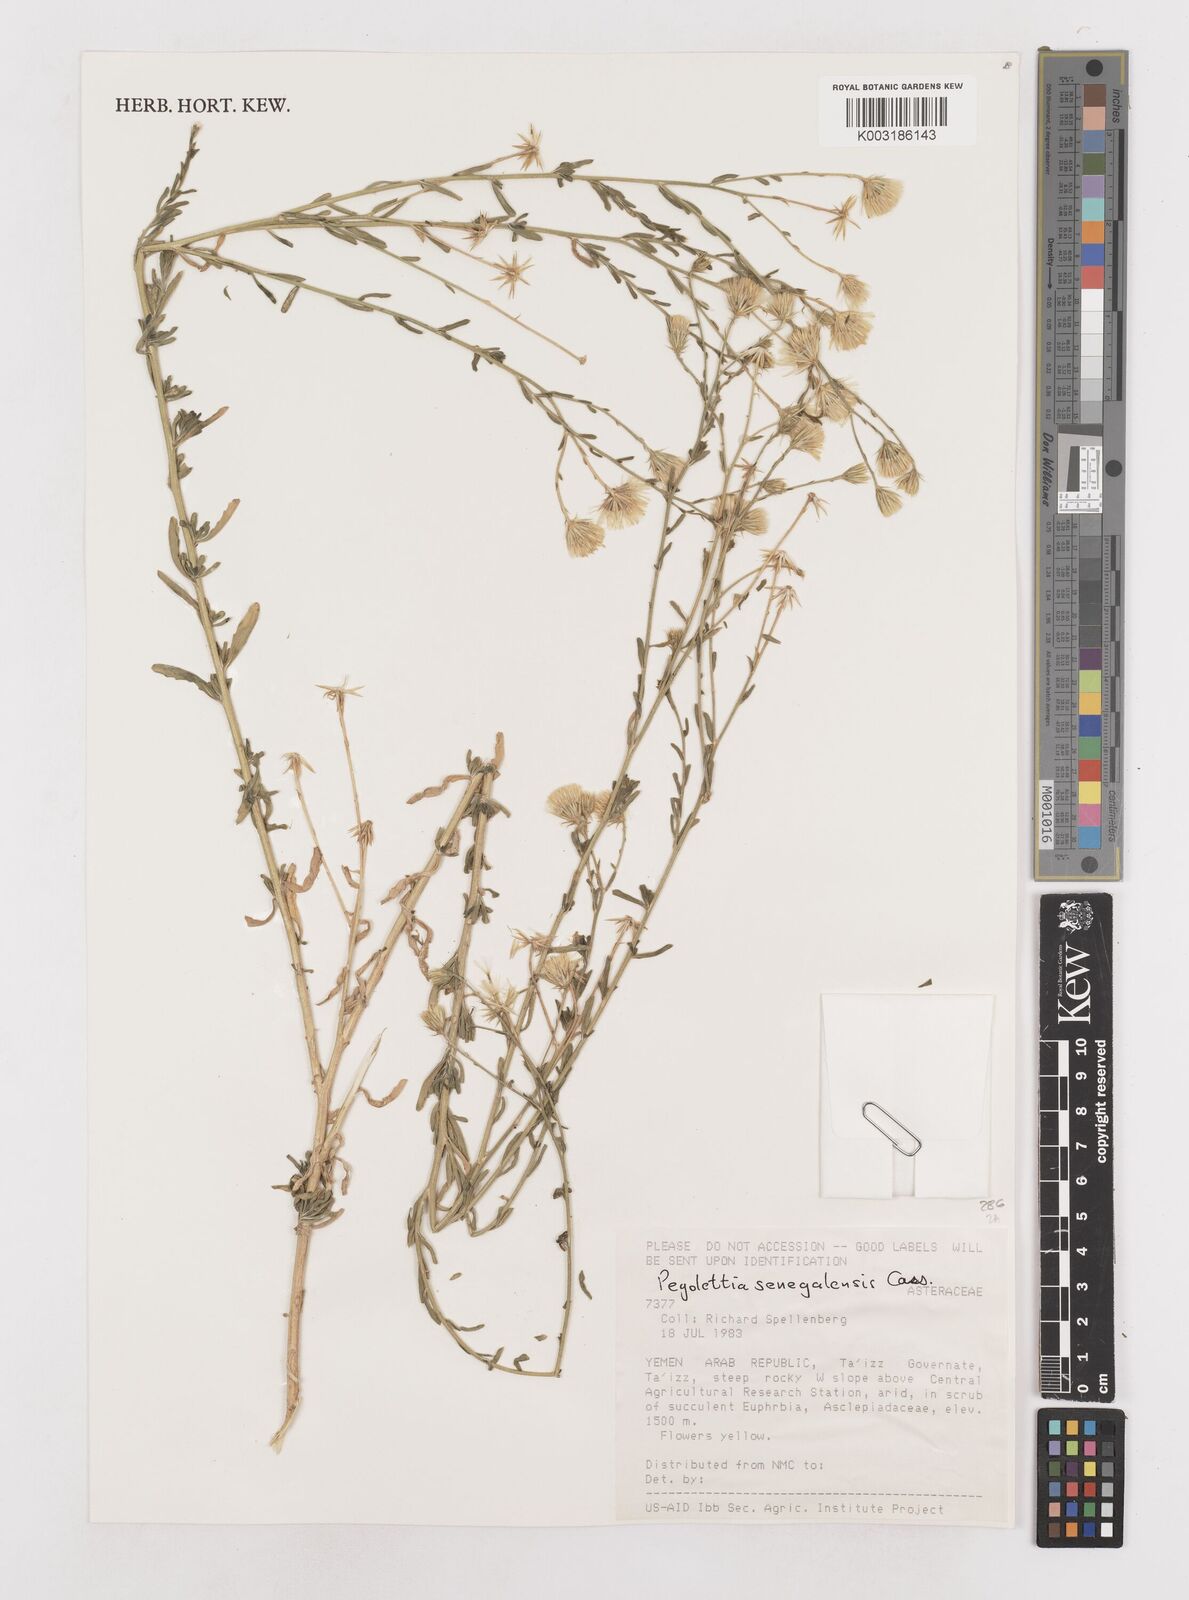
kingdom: Plantae
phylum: Tracheophyta
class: Magnoliopsida
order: Asterales
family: Asteraceae
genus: Pegolettia
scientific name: Pegolettia senegalensis
